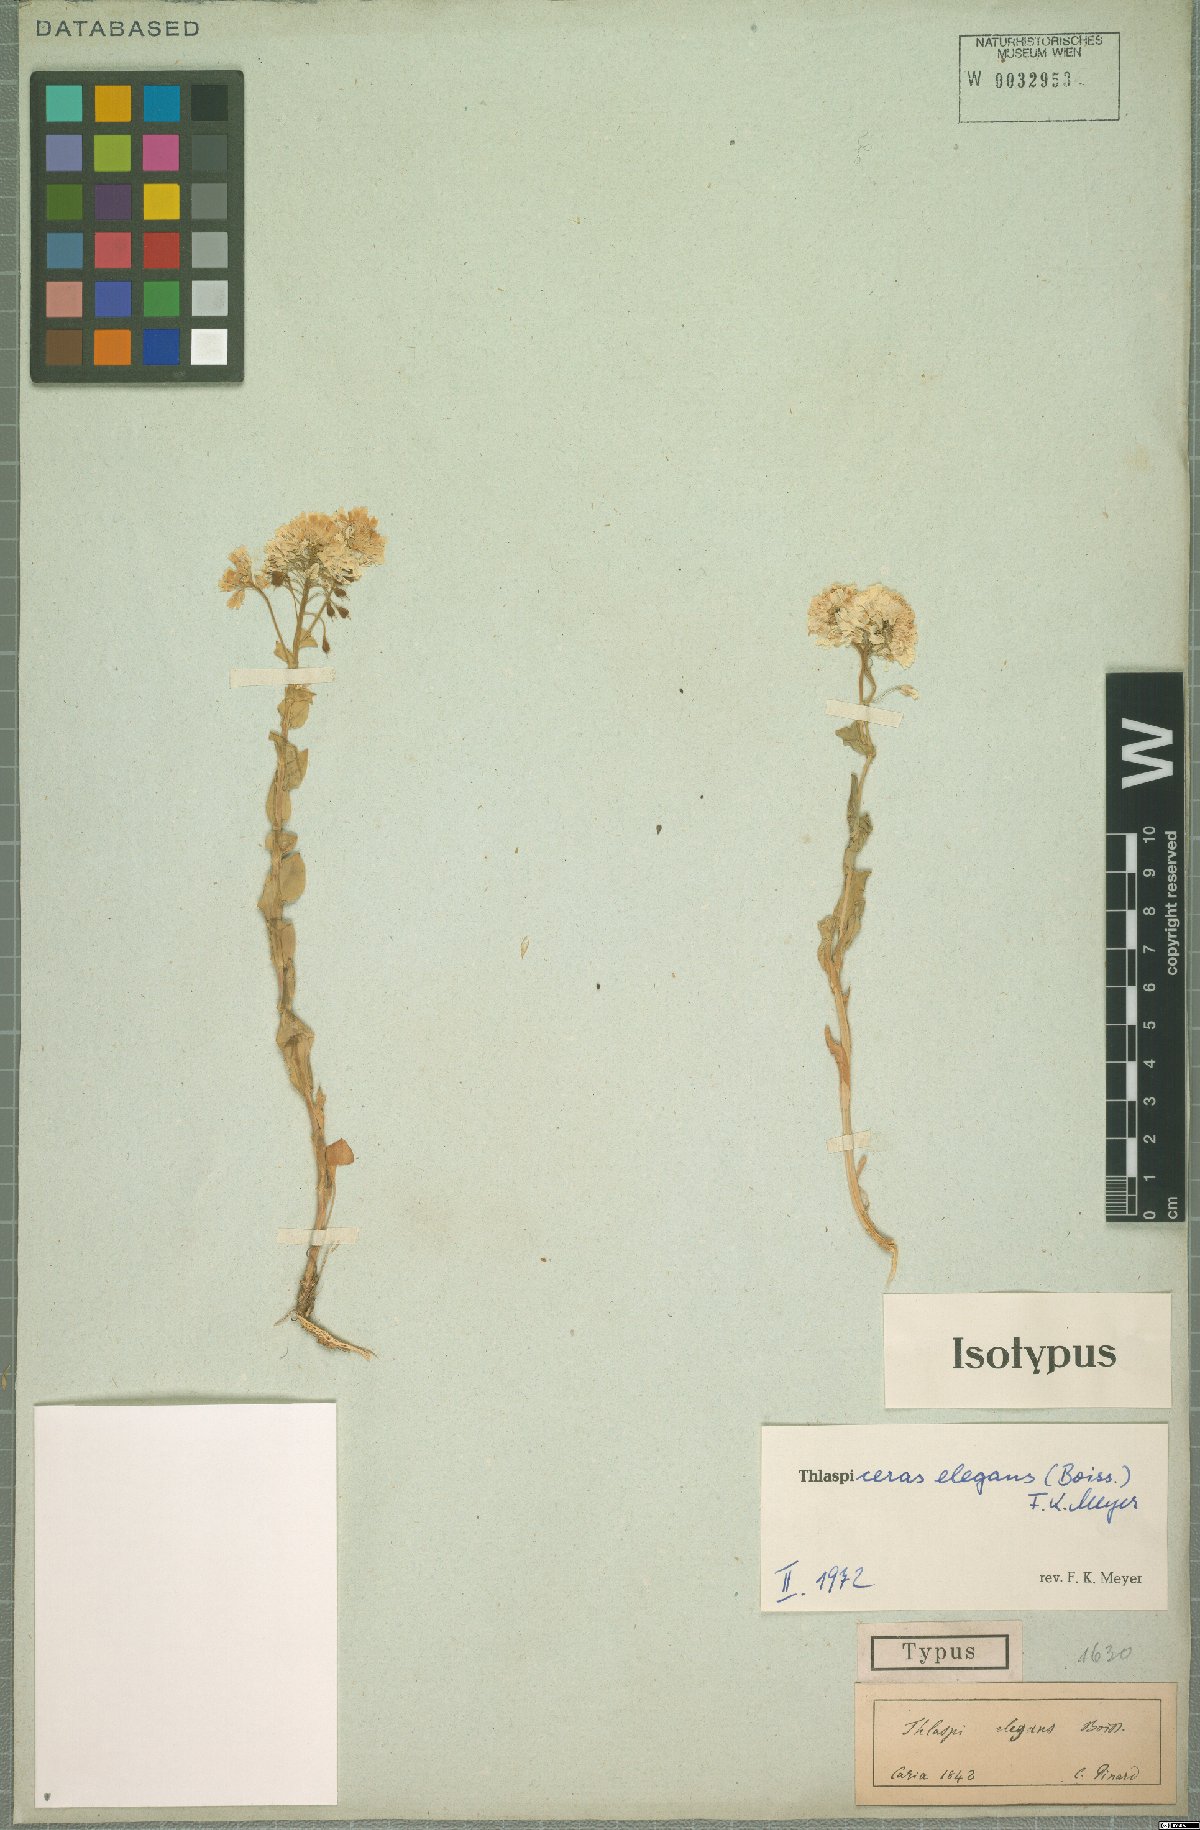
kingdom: Plantae
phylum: Tracheophyta
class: Magnoliopsida
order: Brassicales
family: Brassicaceae
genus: Noccaea
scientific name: Noccaea elegans
